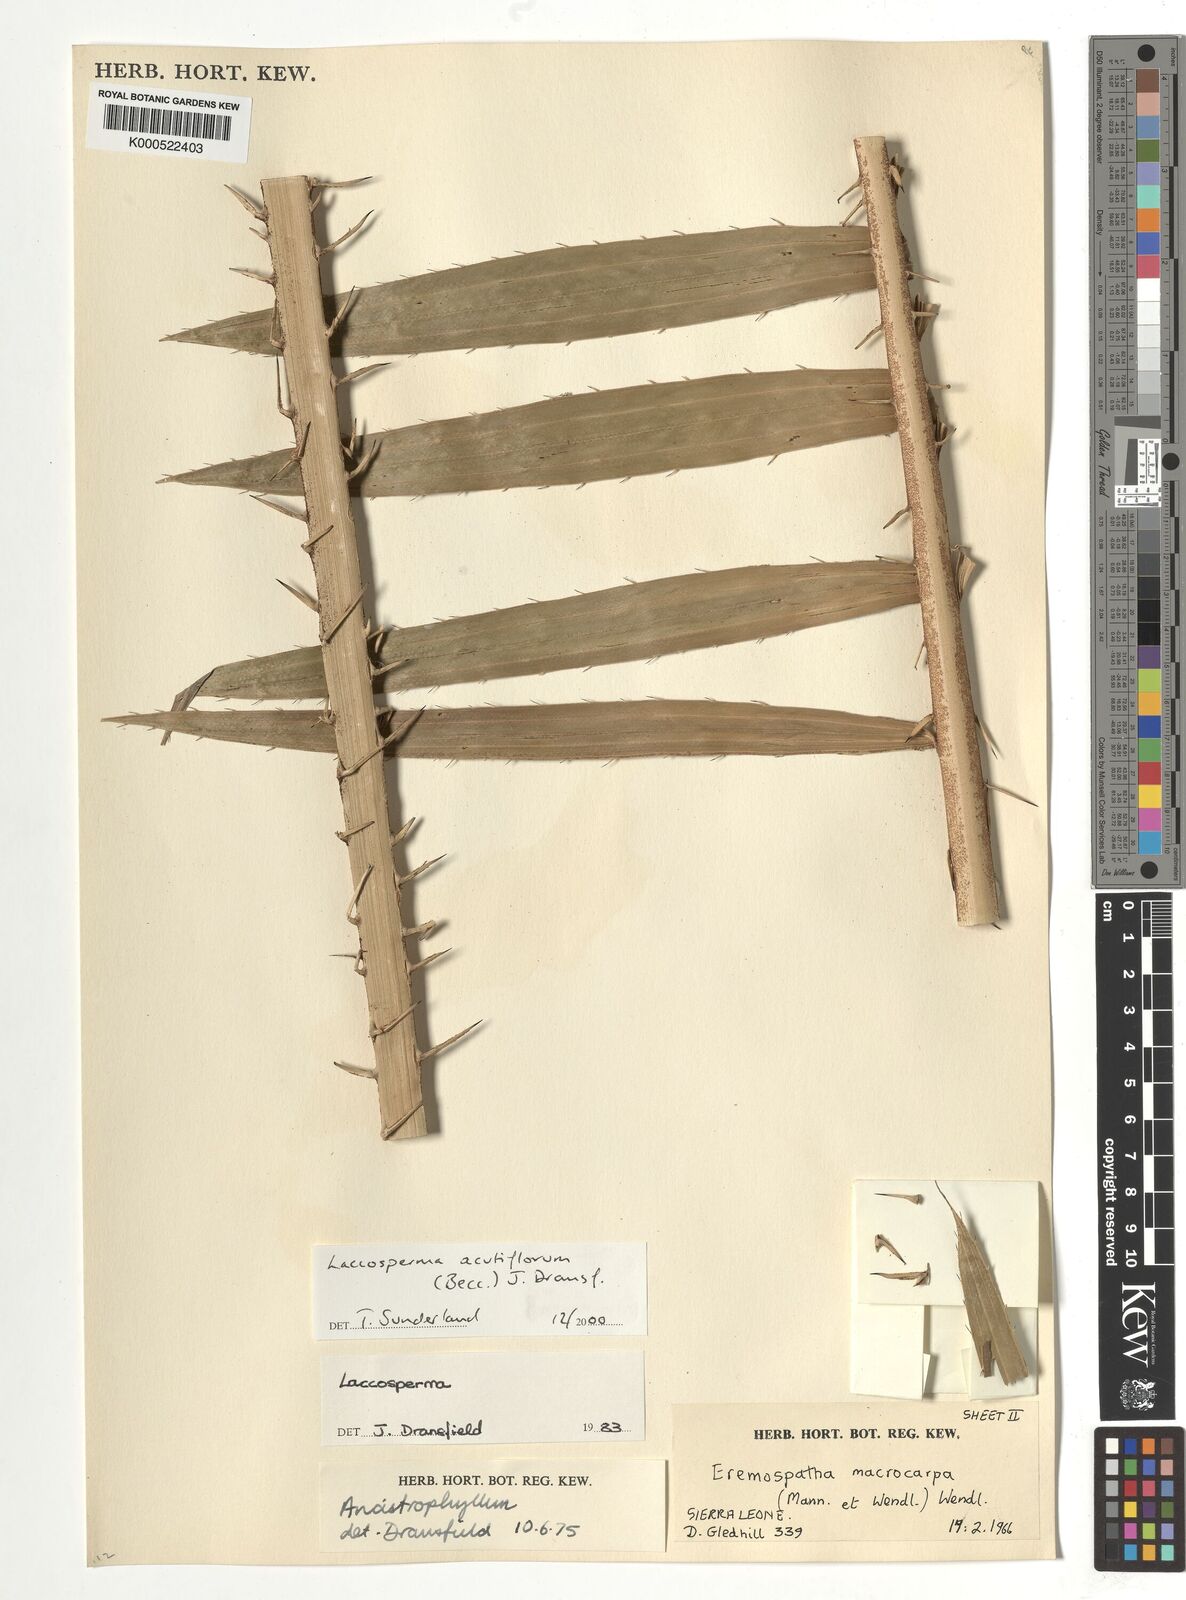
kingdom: Plantae
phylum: Tracheophyta
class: Liliopsida
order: Arecales
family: Arecaceae
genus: Laccosperma
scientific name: Laccosperma acutiflorum
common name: Rattan
